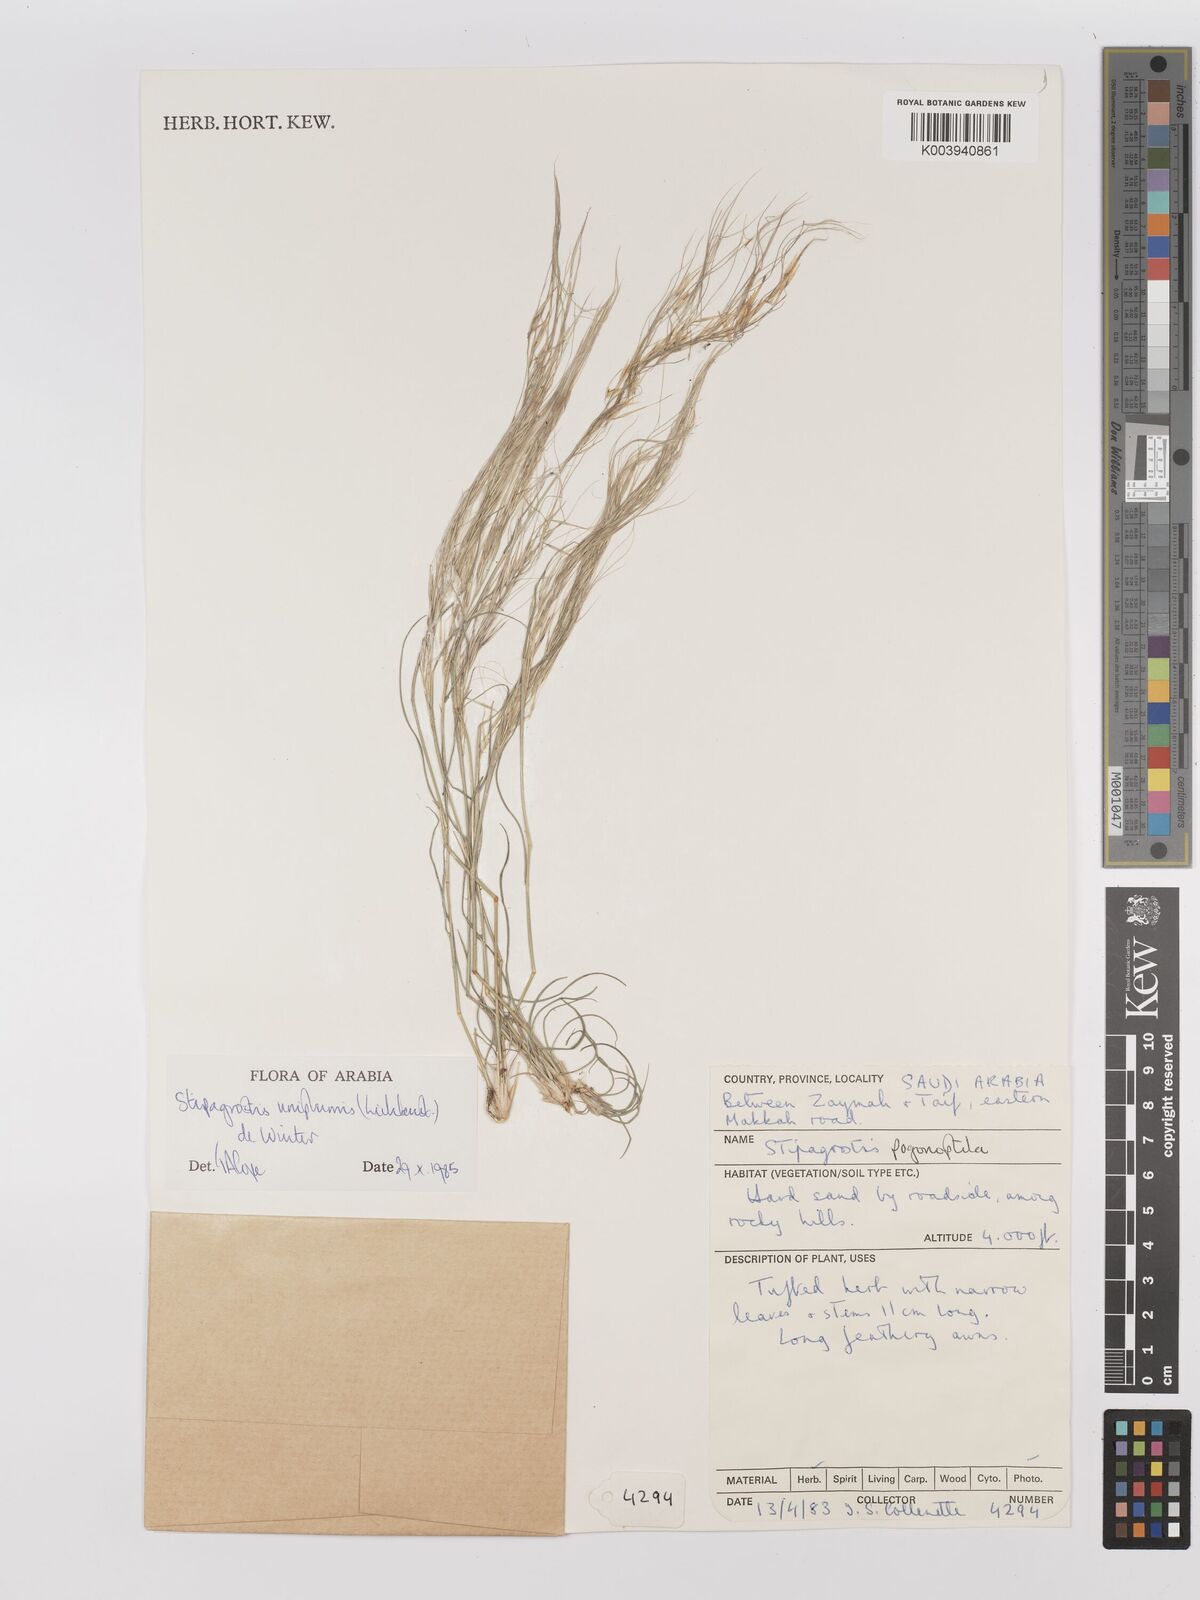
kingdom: Plantae
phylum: Tracheophyta
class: Liliopsida
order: Poales
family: Poaceae
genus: Stipagrostis
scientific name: Stipagrostis uniplumis
